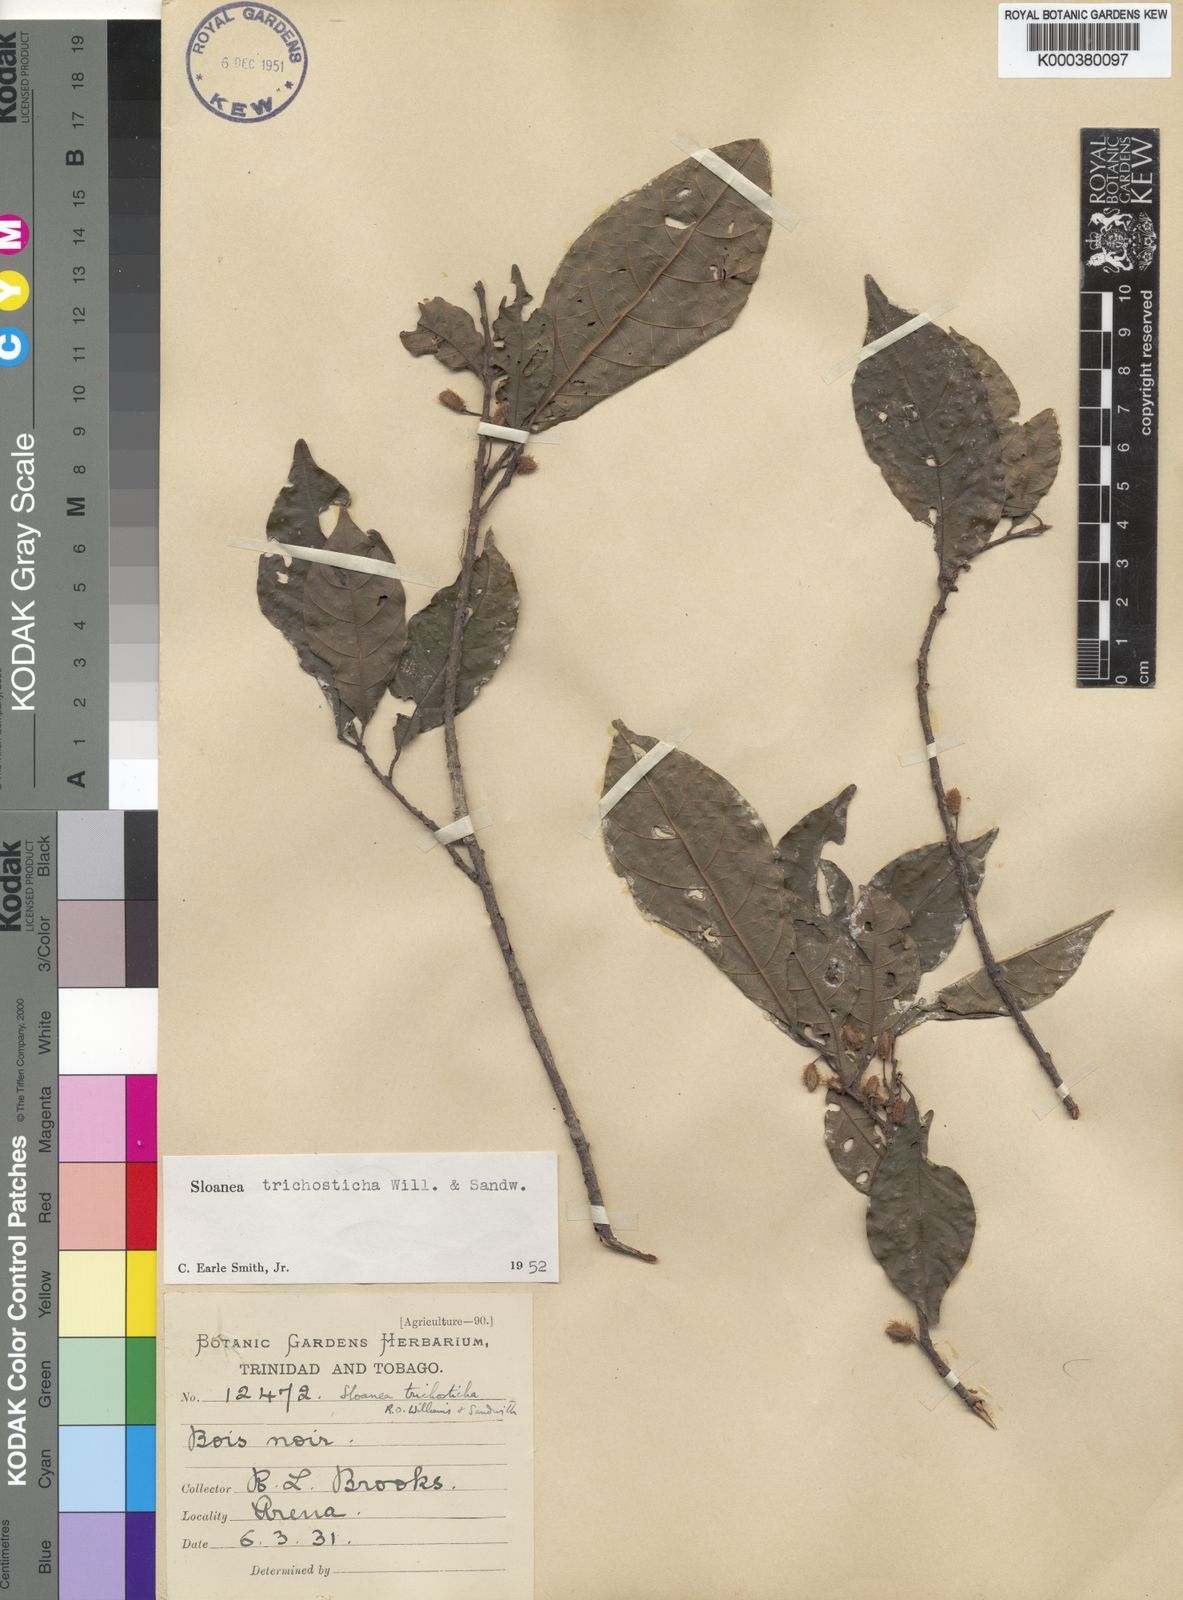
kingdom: Plantae
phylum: Tracheophyta
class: Magnoliopsida
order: Oxalidales
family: Elaeocarpaceae
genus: Sloanea
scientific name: Sloanea trichosticha
